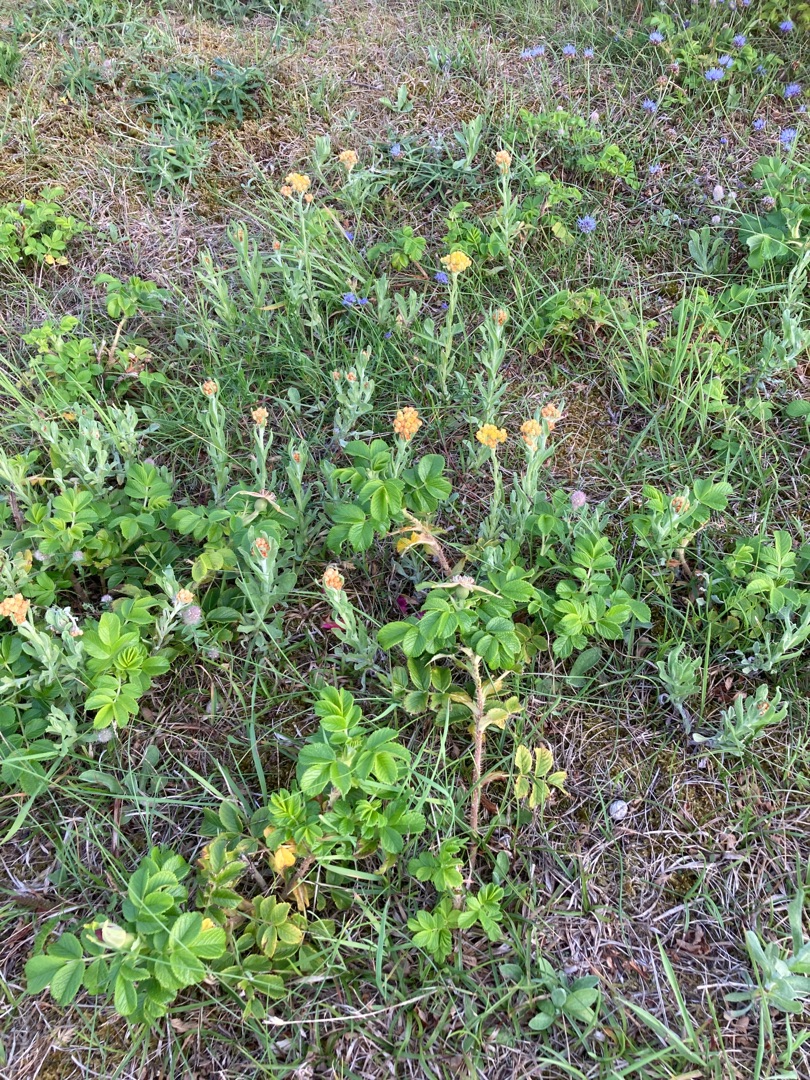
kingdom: Plantae
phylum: Tracheophyta
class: Magnoliopsida
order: Asterales
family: Asteraceae
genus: Helichrysum
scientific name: Helichrysum arenarium
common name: Gul evighedsblomst
